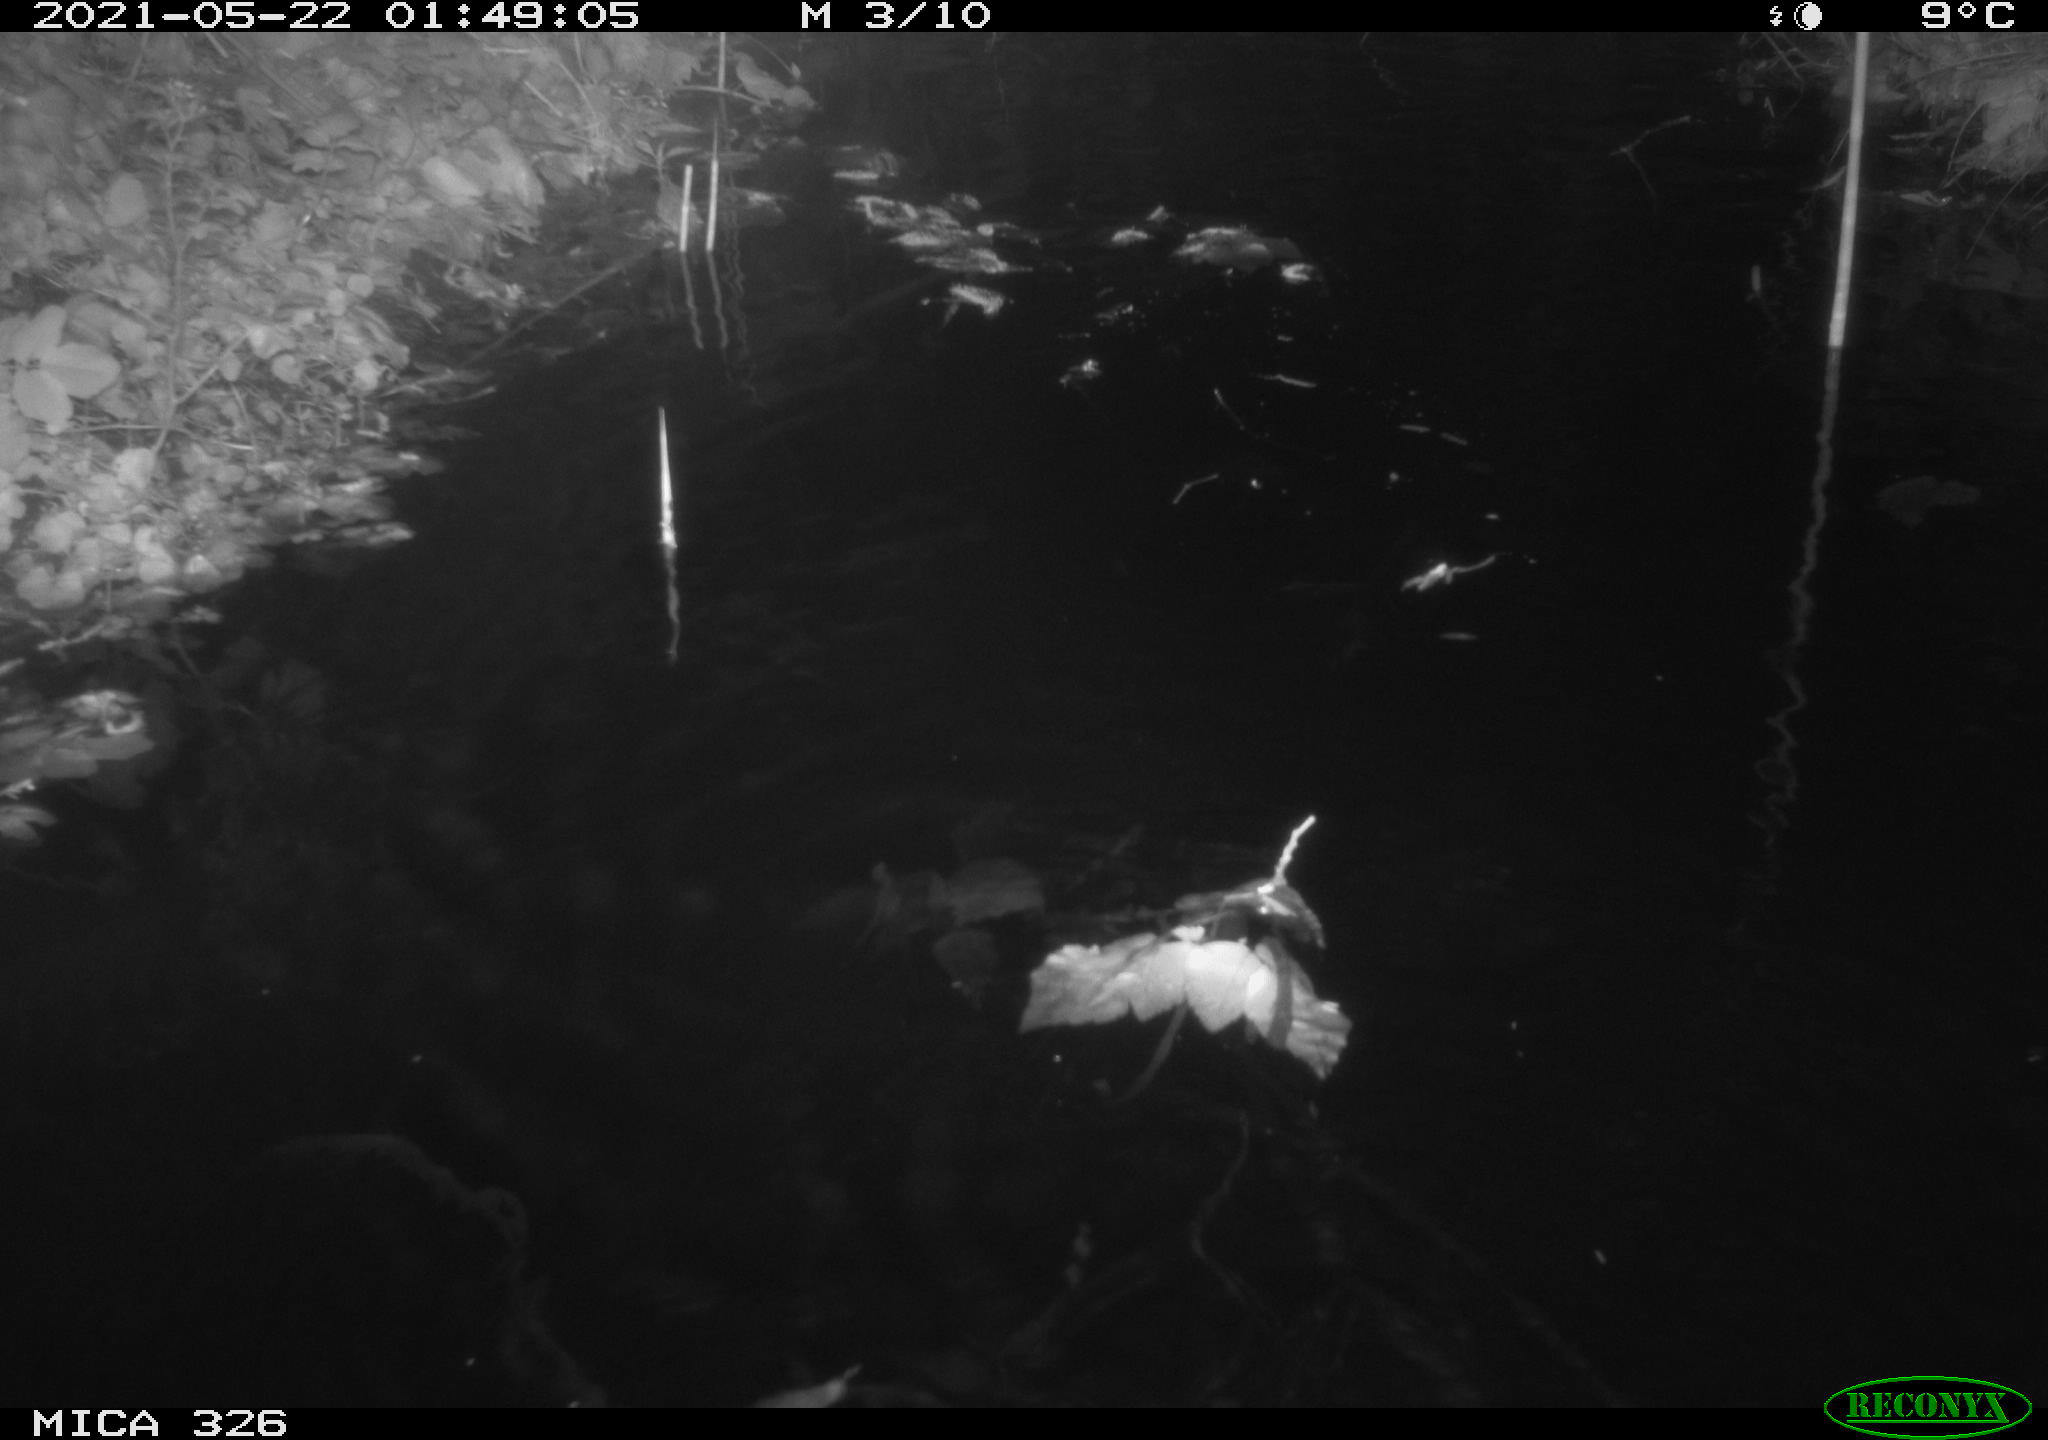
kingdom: Animalia
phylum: Chordata
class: Mammalia
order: Rodentia
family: Cricetidae
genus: Ondatra
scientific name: Ondatra zibethicus
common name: Muskrat
